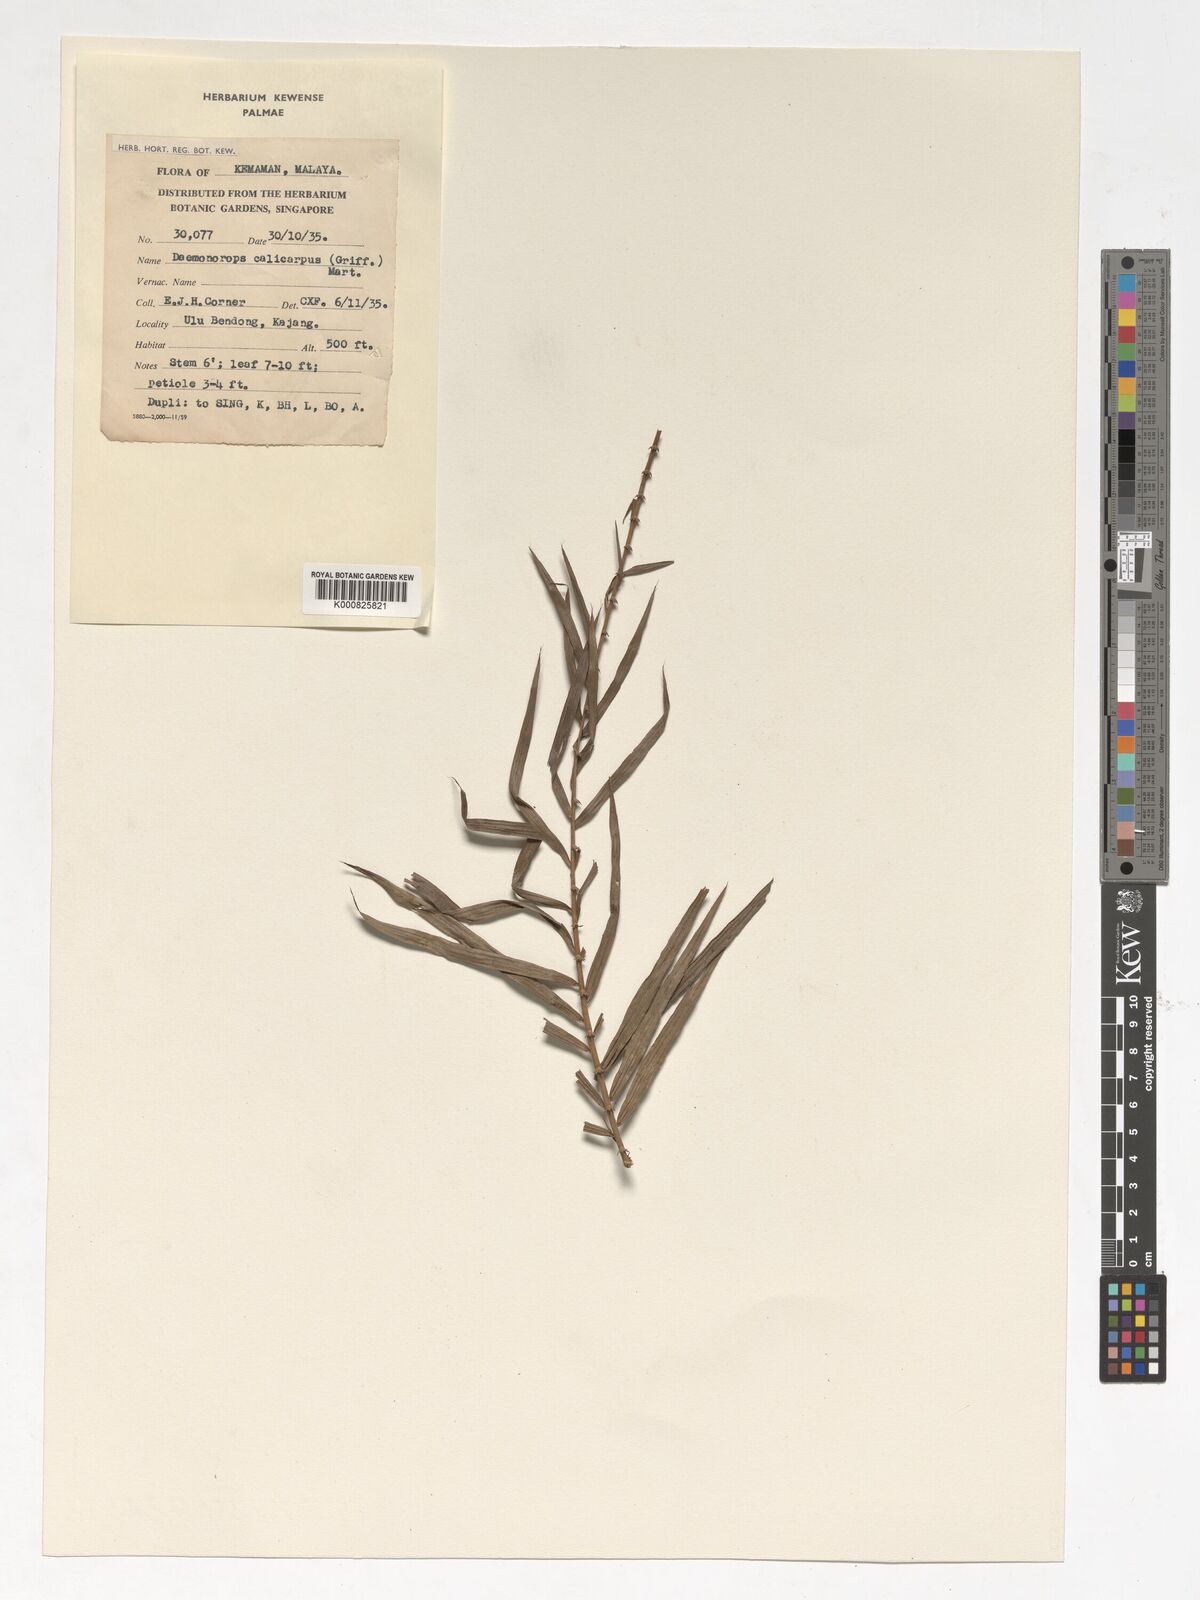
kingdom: Plantae
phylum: Tracheophyta
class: Liliopsida
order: Arecales
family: Arecaceae
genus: Calamus
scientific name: Calamus calicarpus
